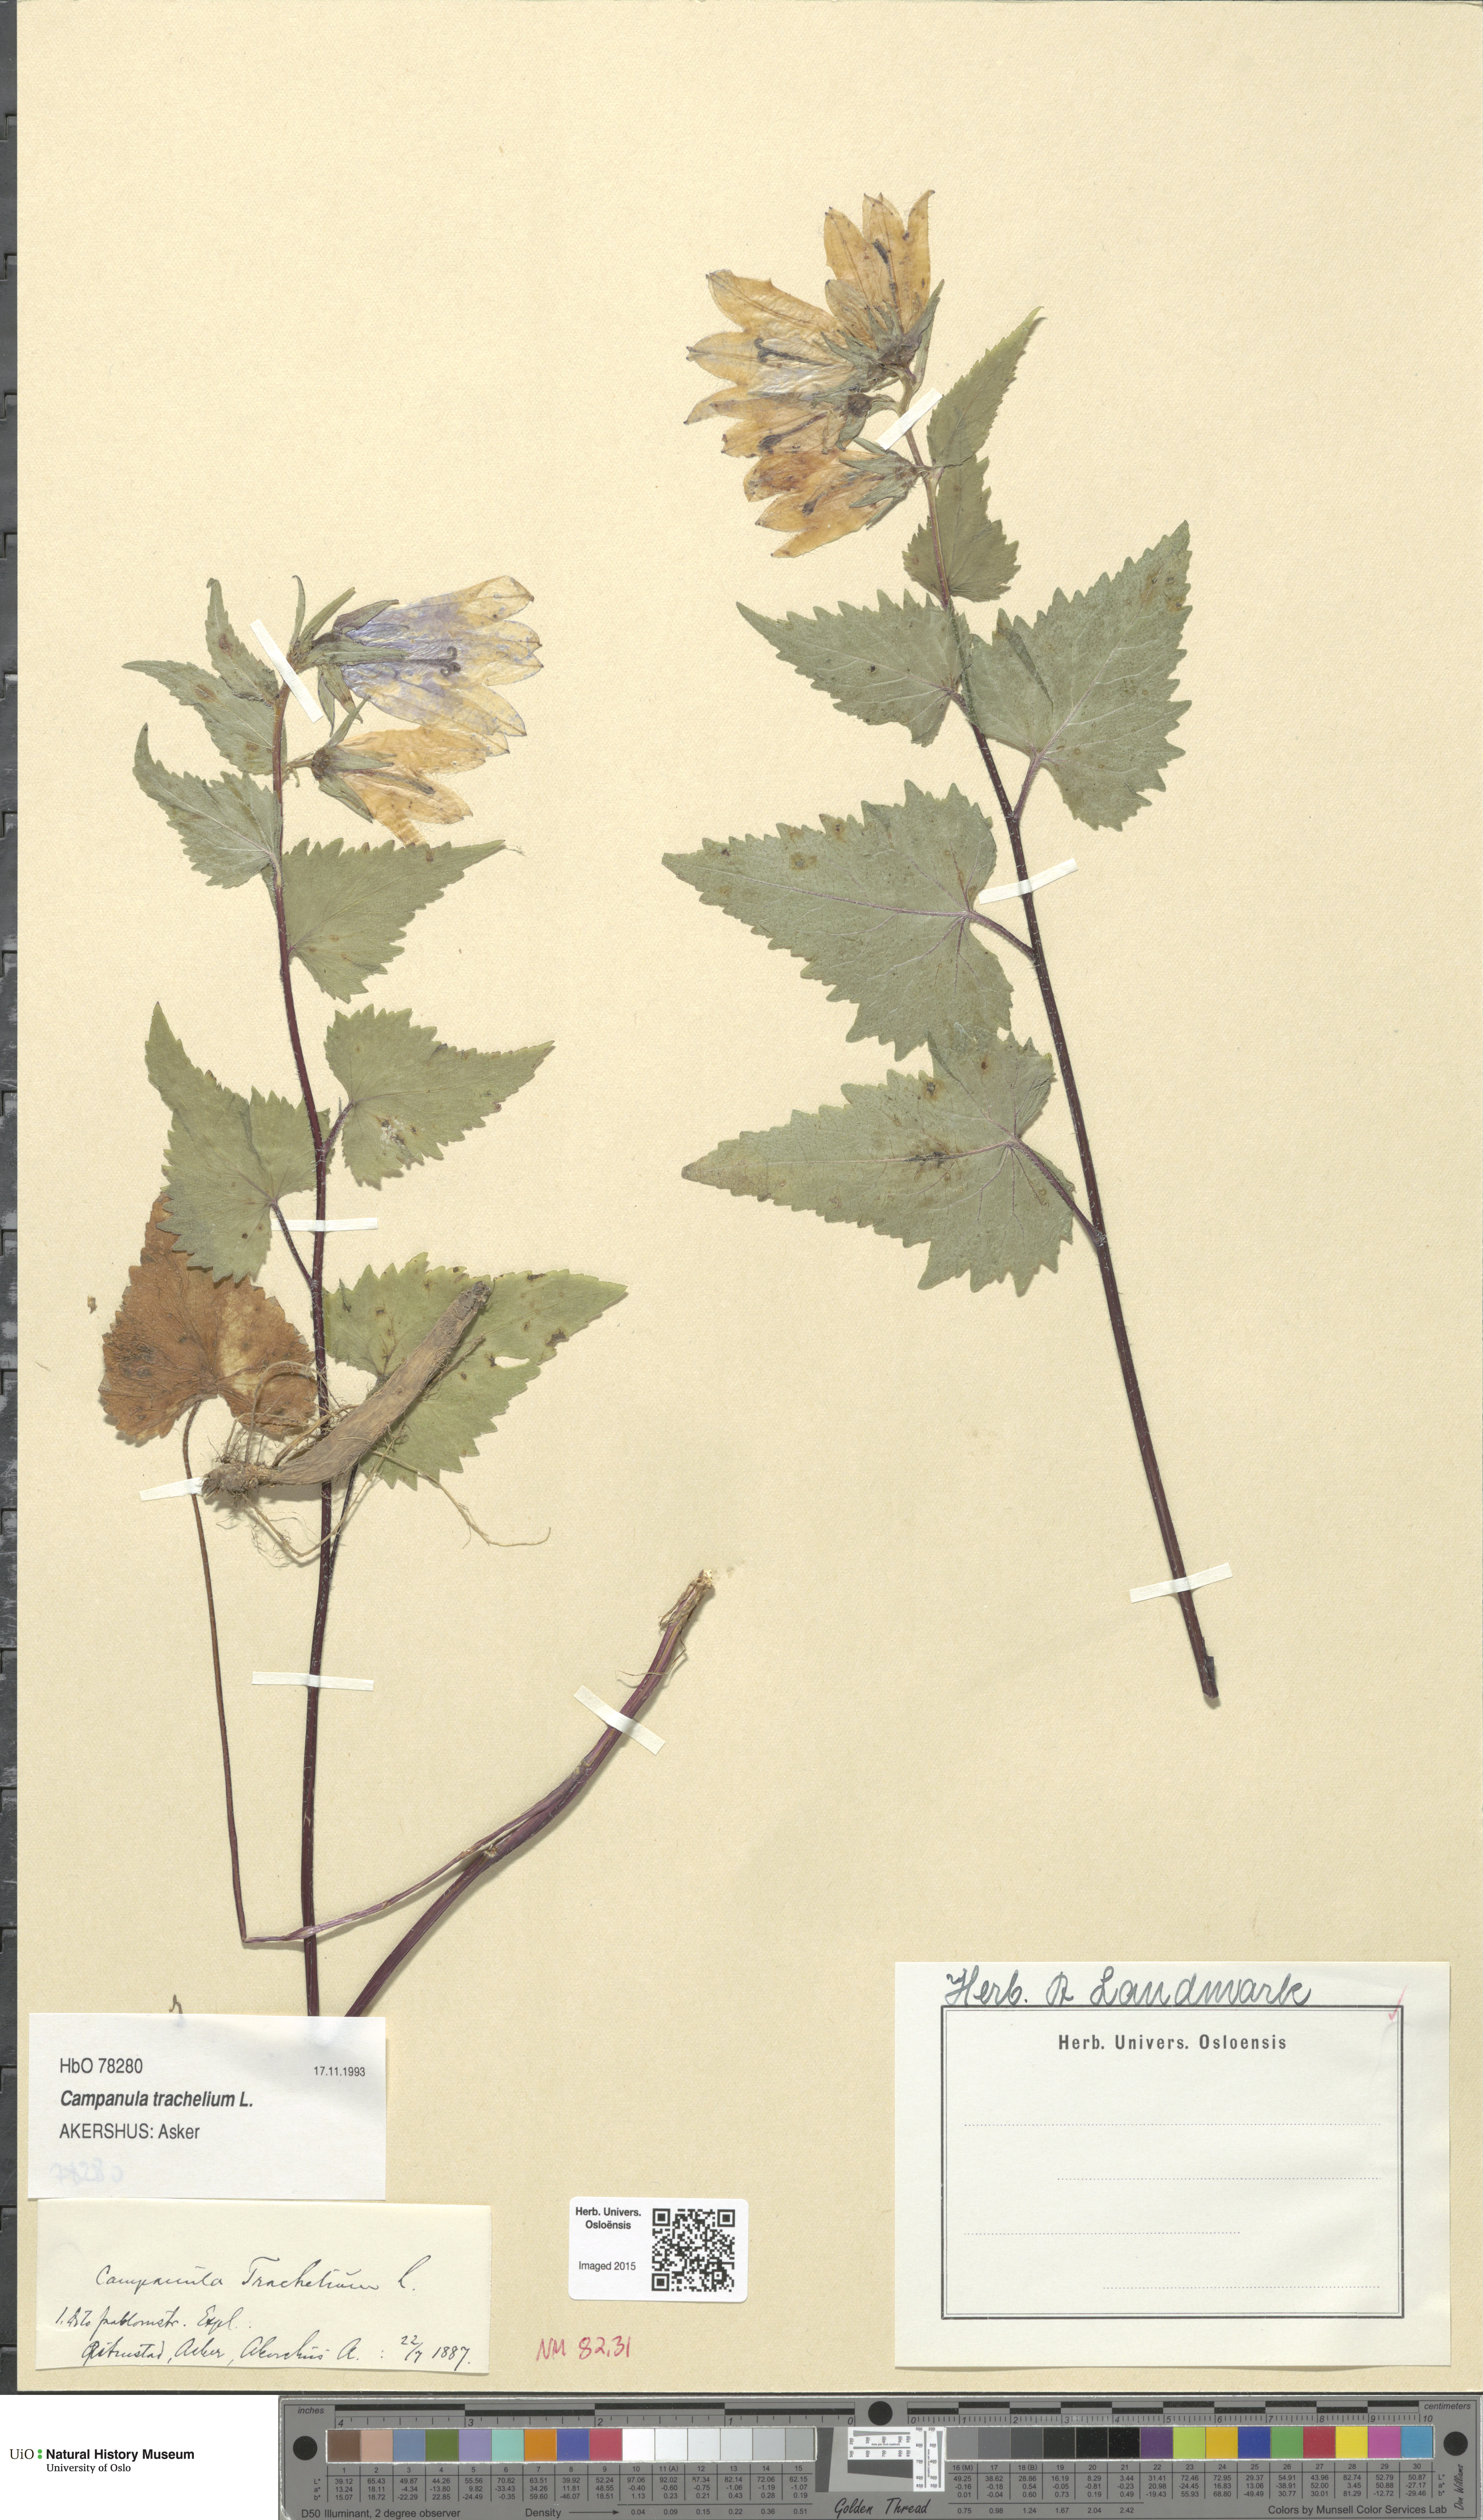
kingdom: Plantae
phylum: Tracheophyta
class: Magnoliopsida
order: Asterales
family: Campanulaceae
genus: Campanula
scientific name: Campanula trachelium
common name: Nettle-leaved bellflower
